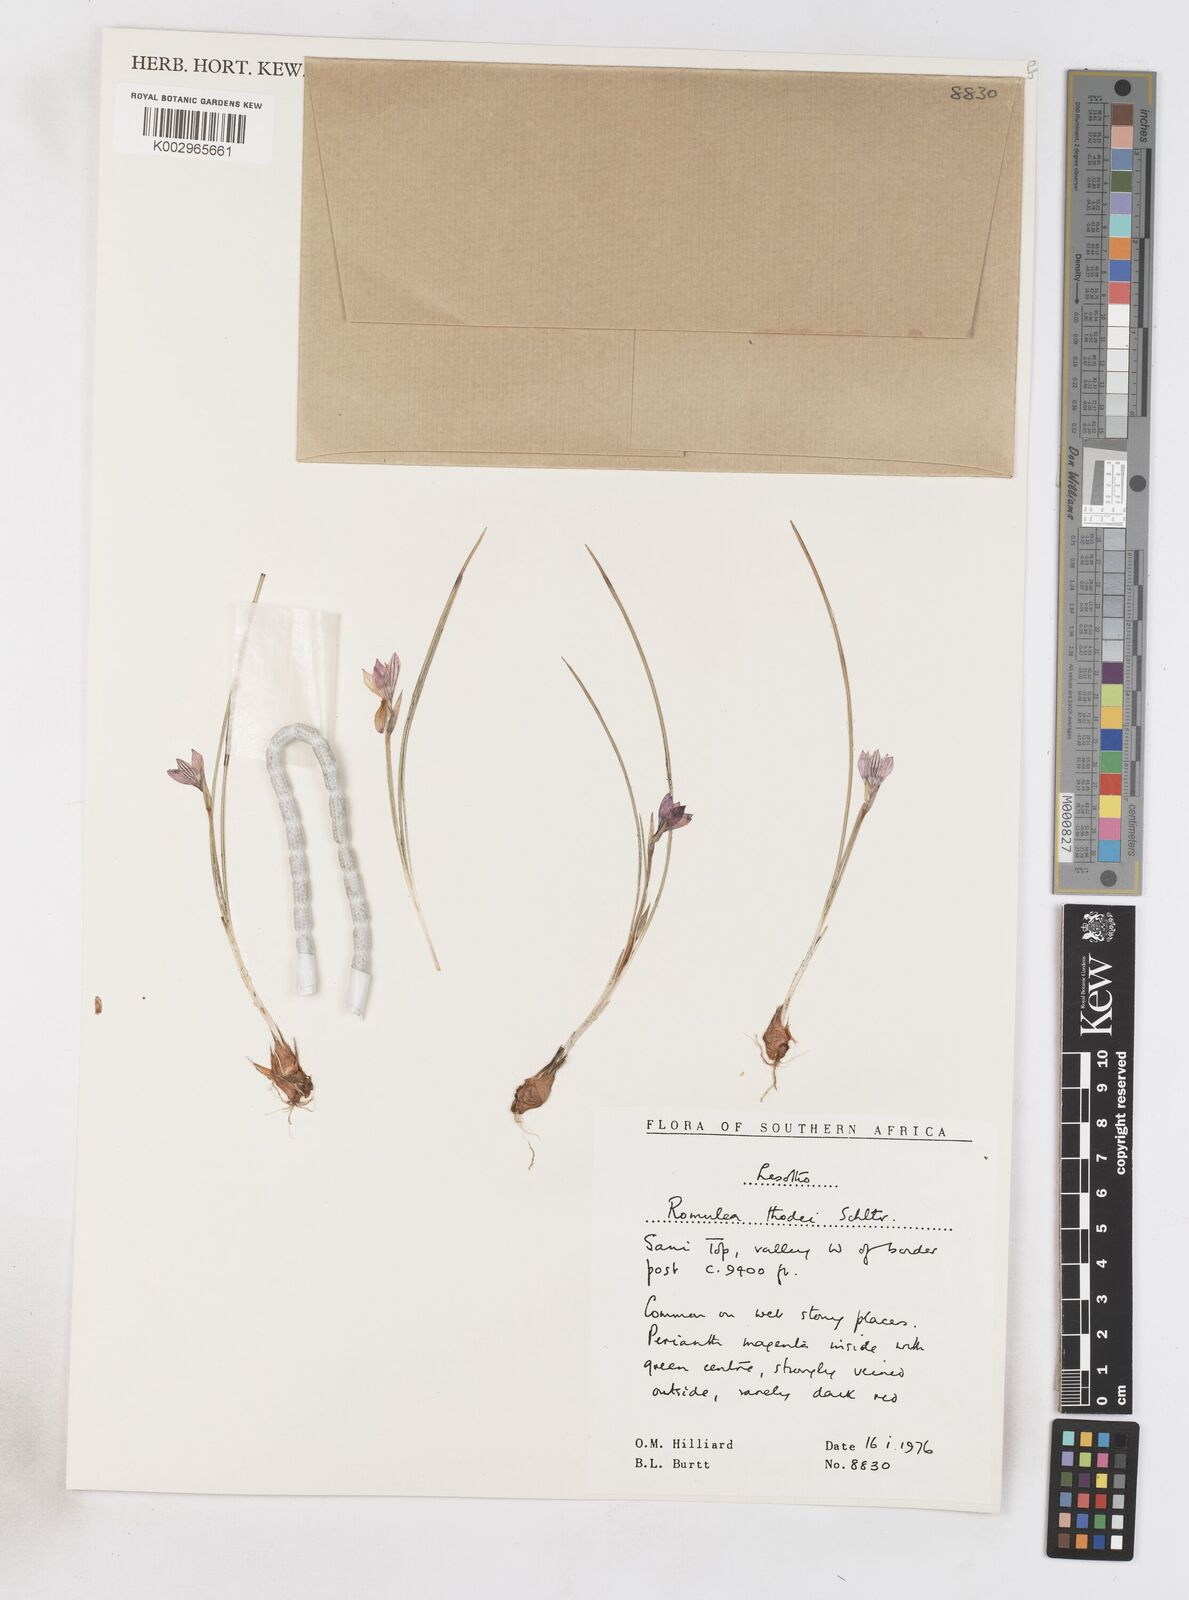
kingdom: Plantae
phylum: Tracheophyta
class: Liliopsida
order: Asparagales
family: Iridaceae
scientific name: Iridaceae
